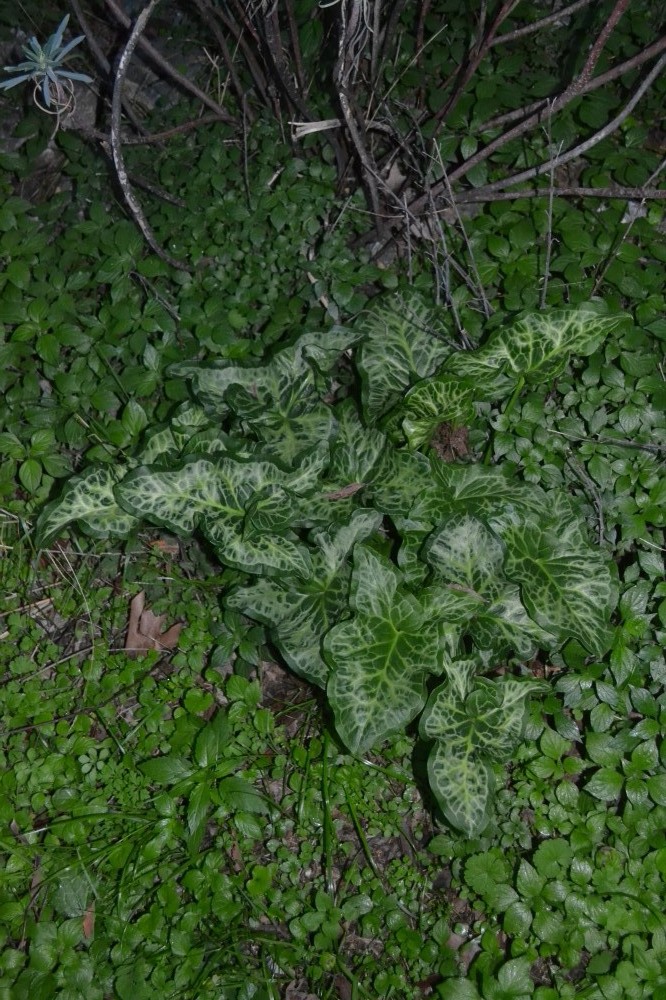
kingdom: Plantae
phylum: Tracheophyta
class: Liliopsida
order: Alismatales
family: Araceae
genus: Arum
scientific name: Arum italicum
